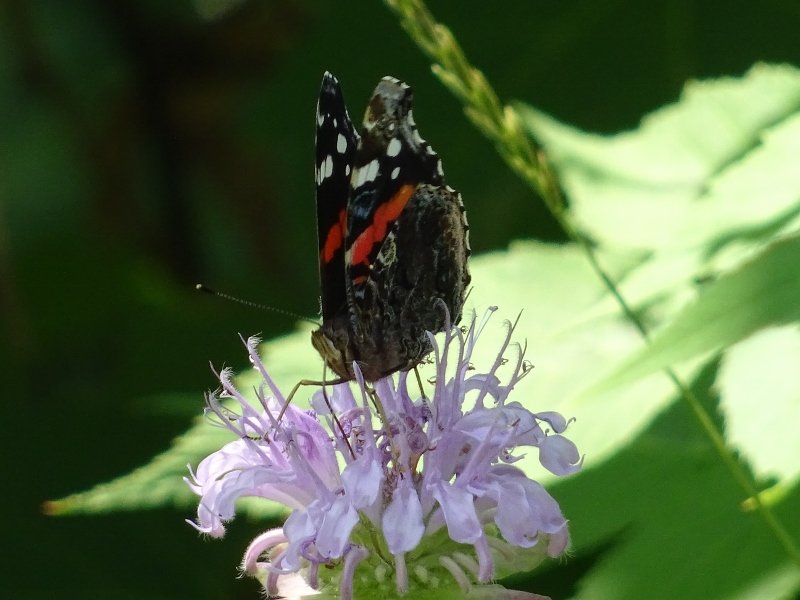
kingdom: Animalia
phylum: Arthropoda
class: Insecta
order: Lepidoptera
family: Nymphalidae
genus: Vanessa
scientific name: Vanessa atalanta
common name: Red Admiral
